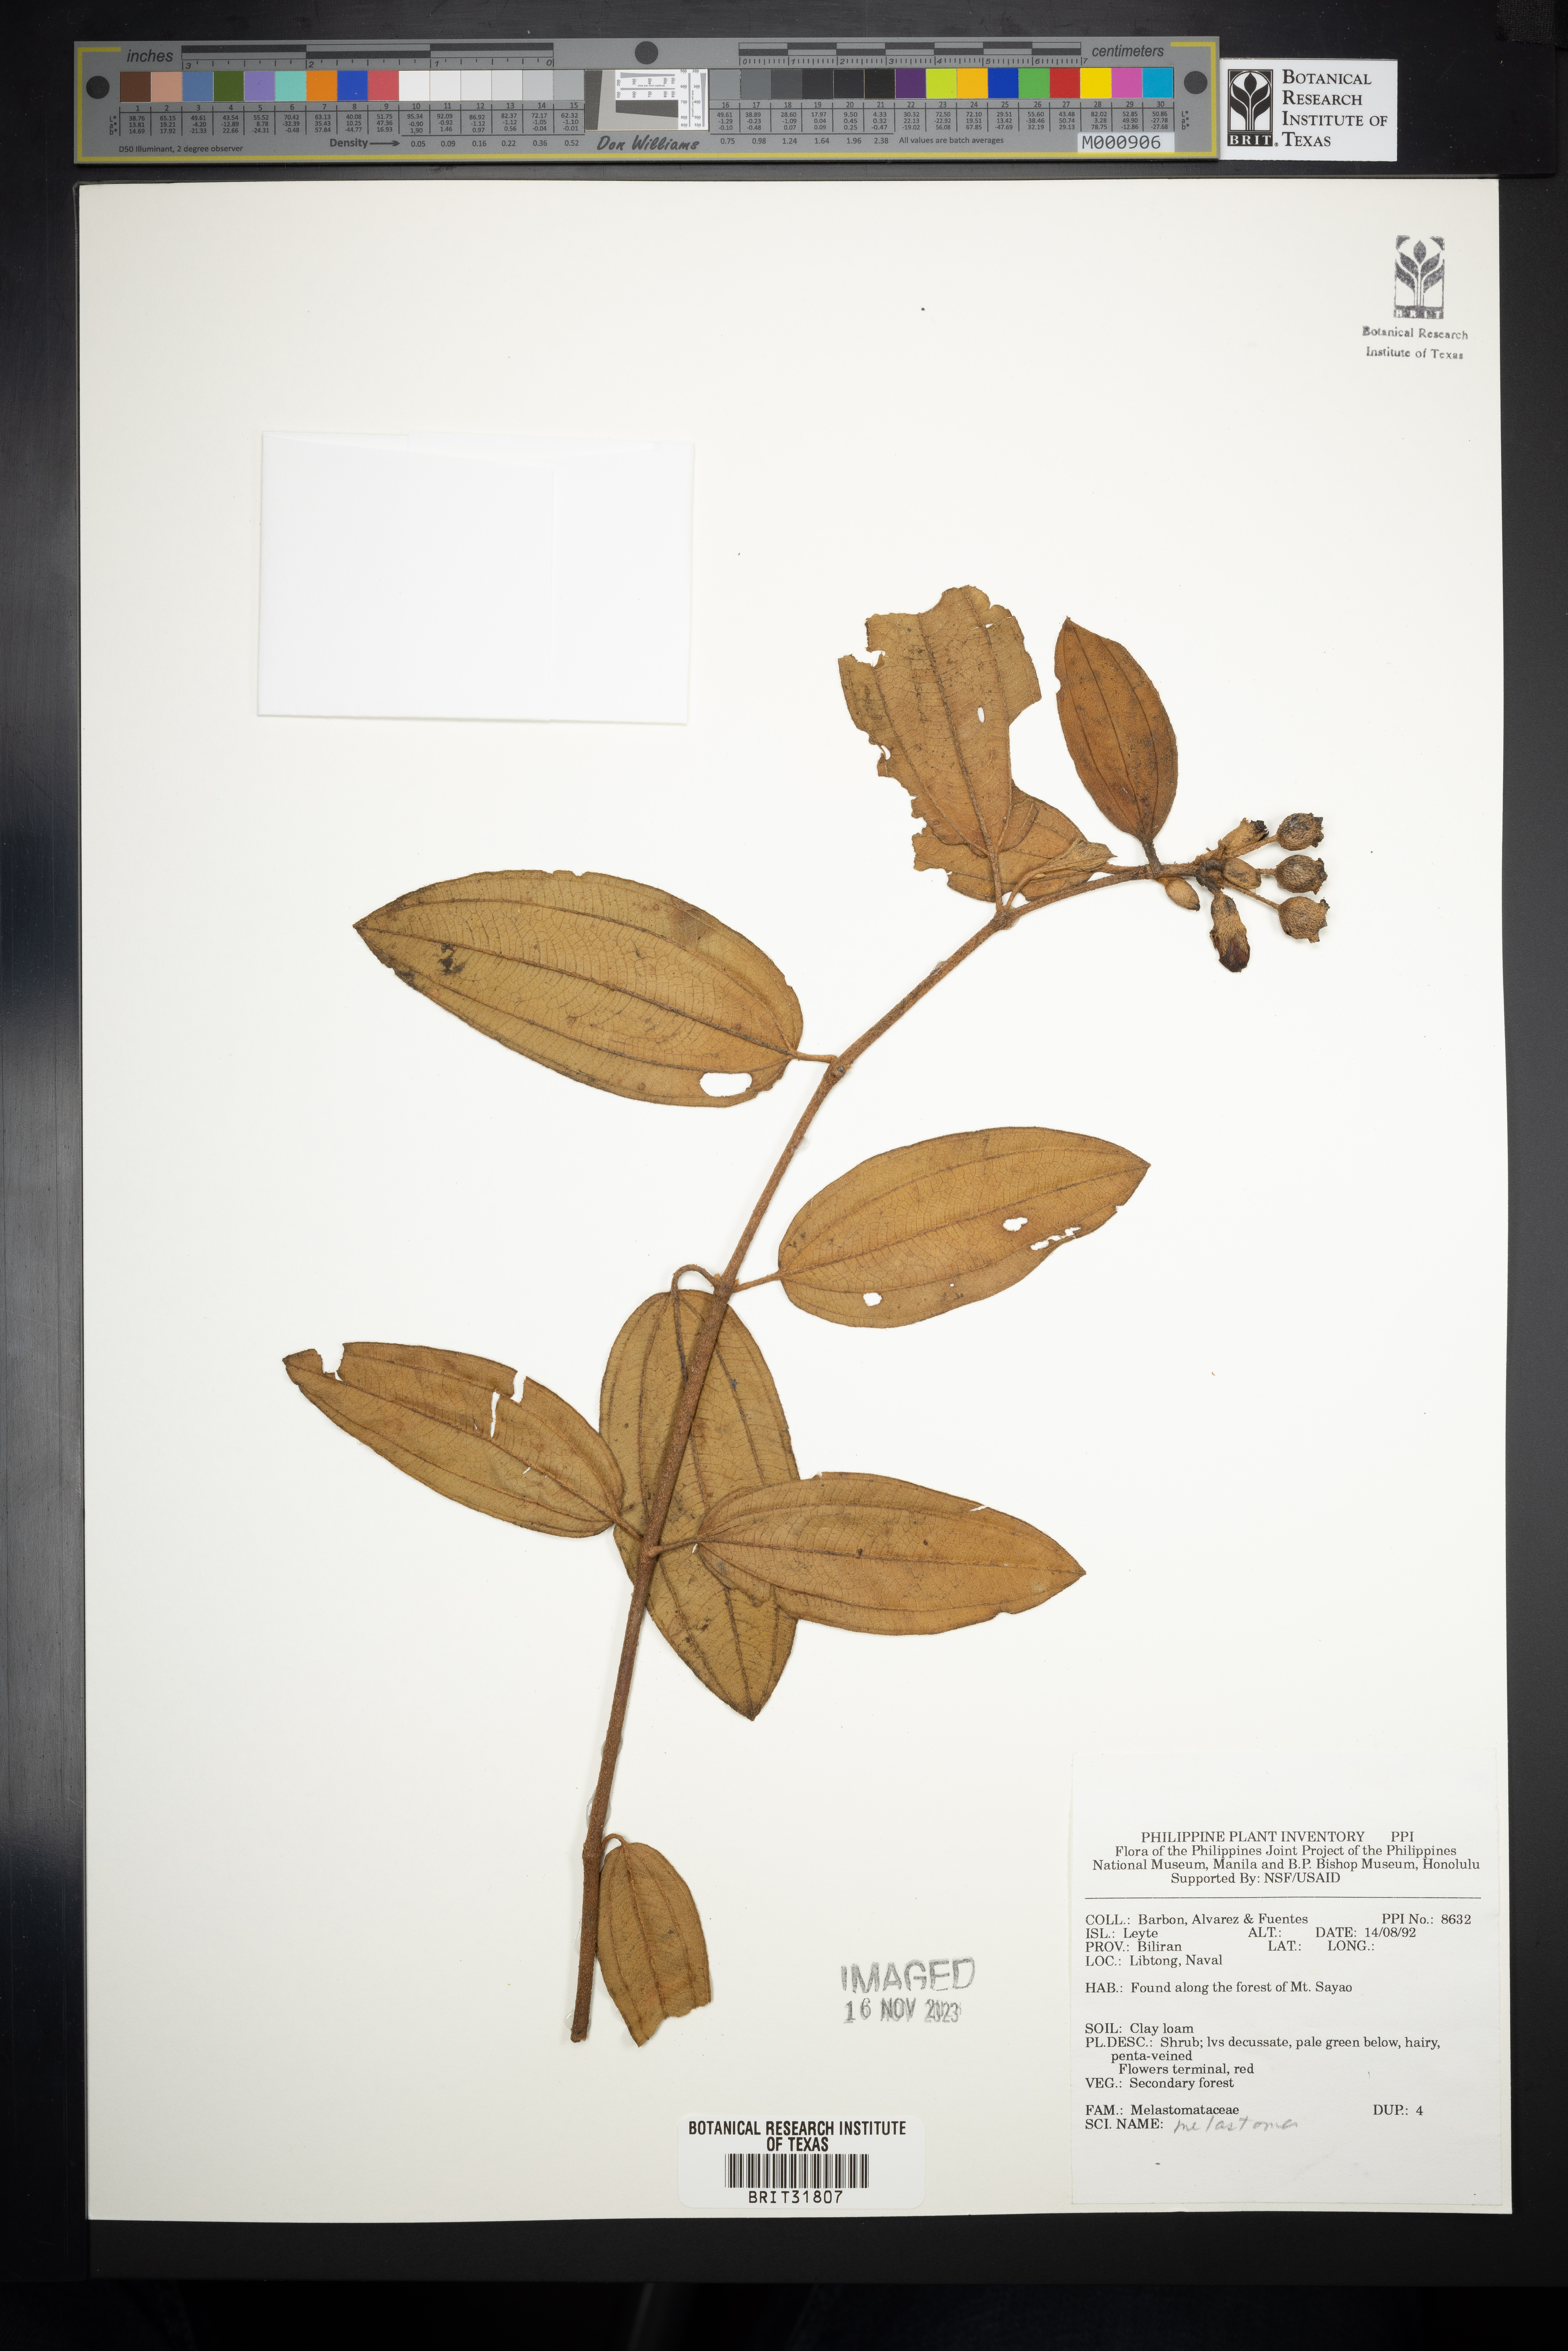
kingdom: Plantae
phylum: Tracheophyta
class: Magnoliopsida
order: Myrtales
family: Melastomataceae
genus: Melastoma
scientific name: Melastoma
